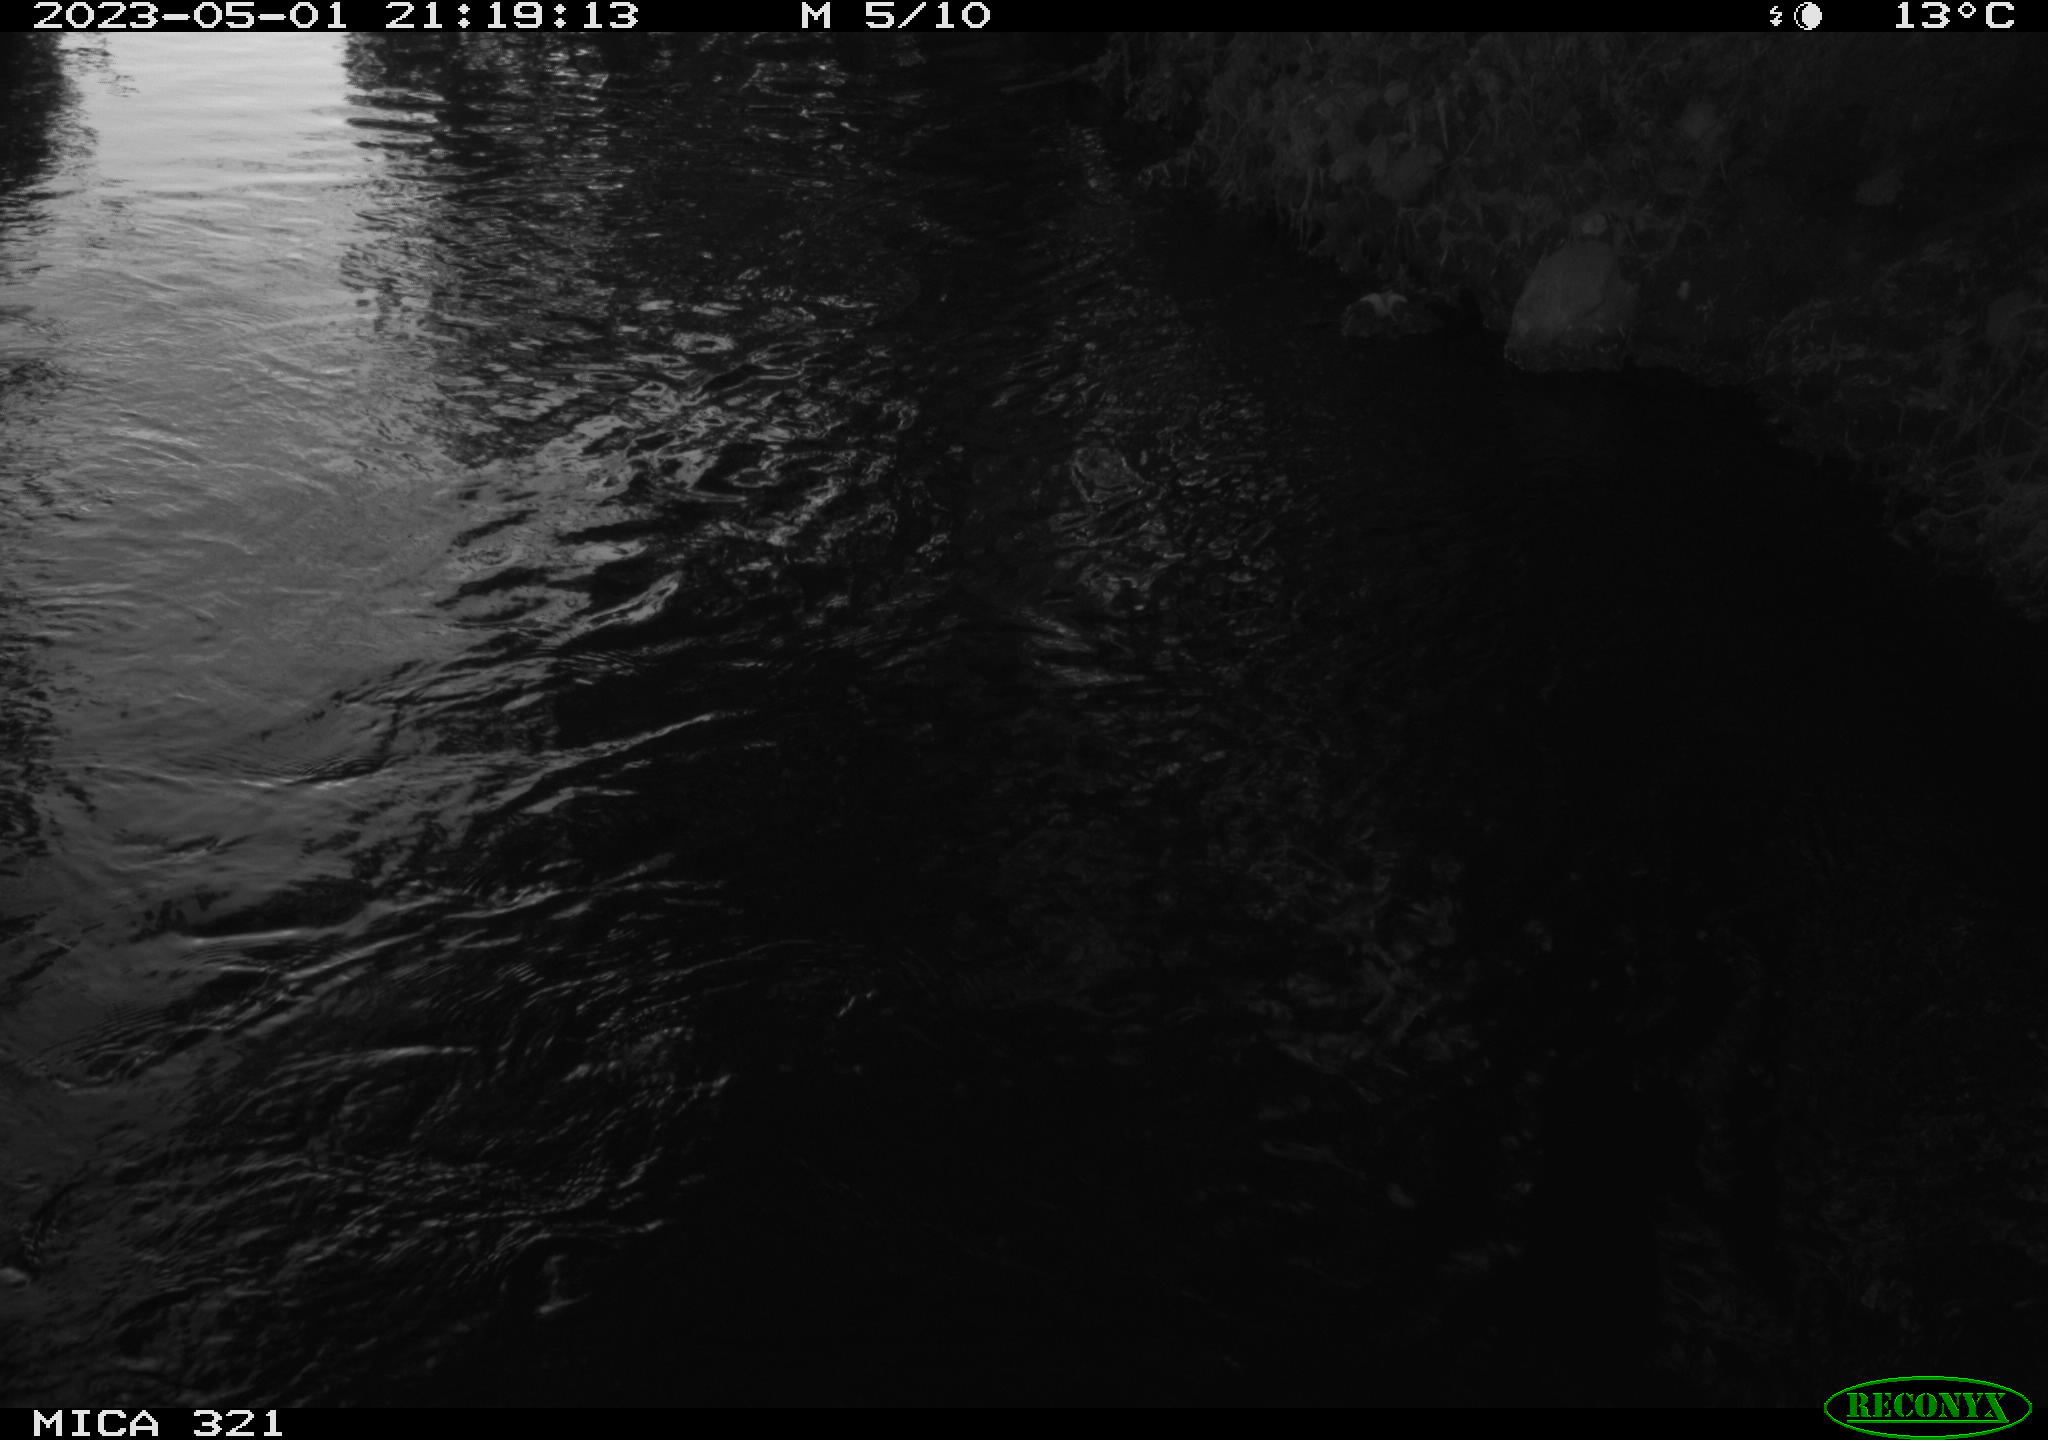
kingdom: Animalia
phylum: Chordata
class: Aves
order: Anseriformes
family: Anatidae
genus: Anas
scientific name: Anas
